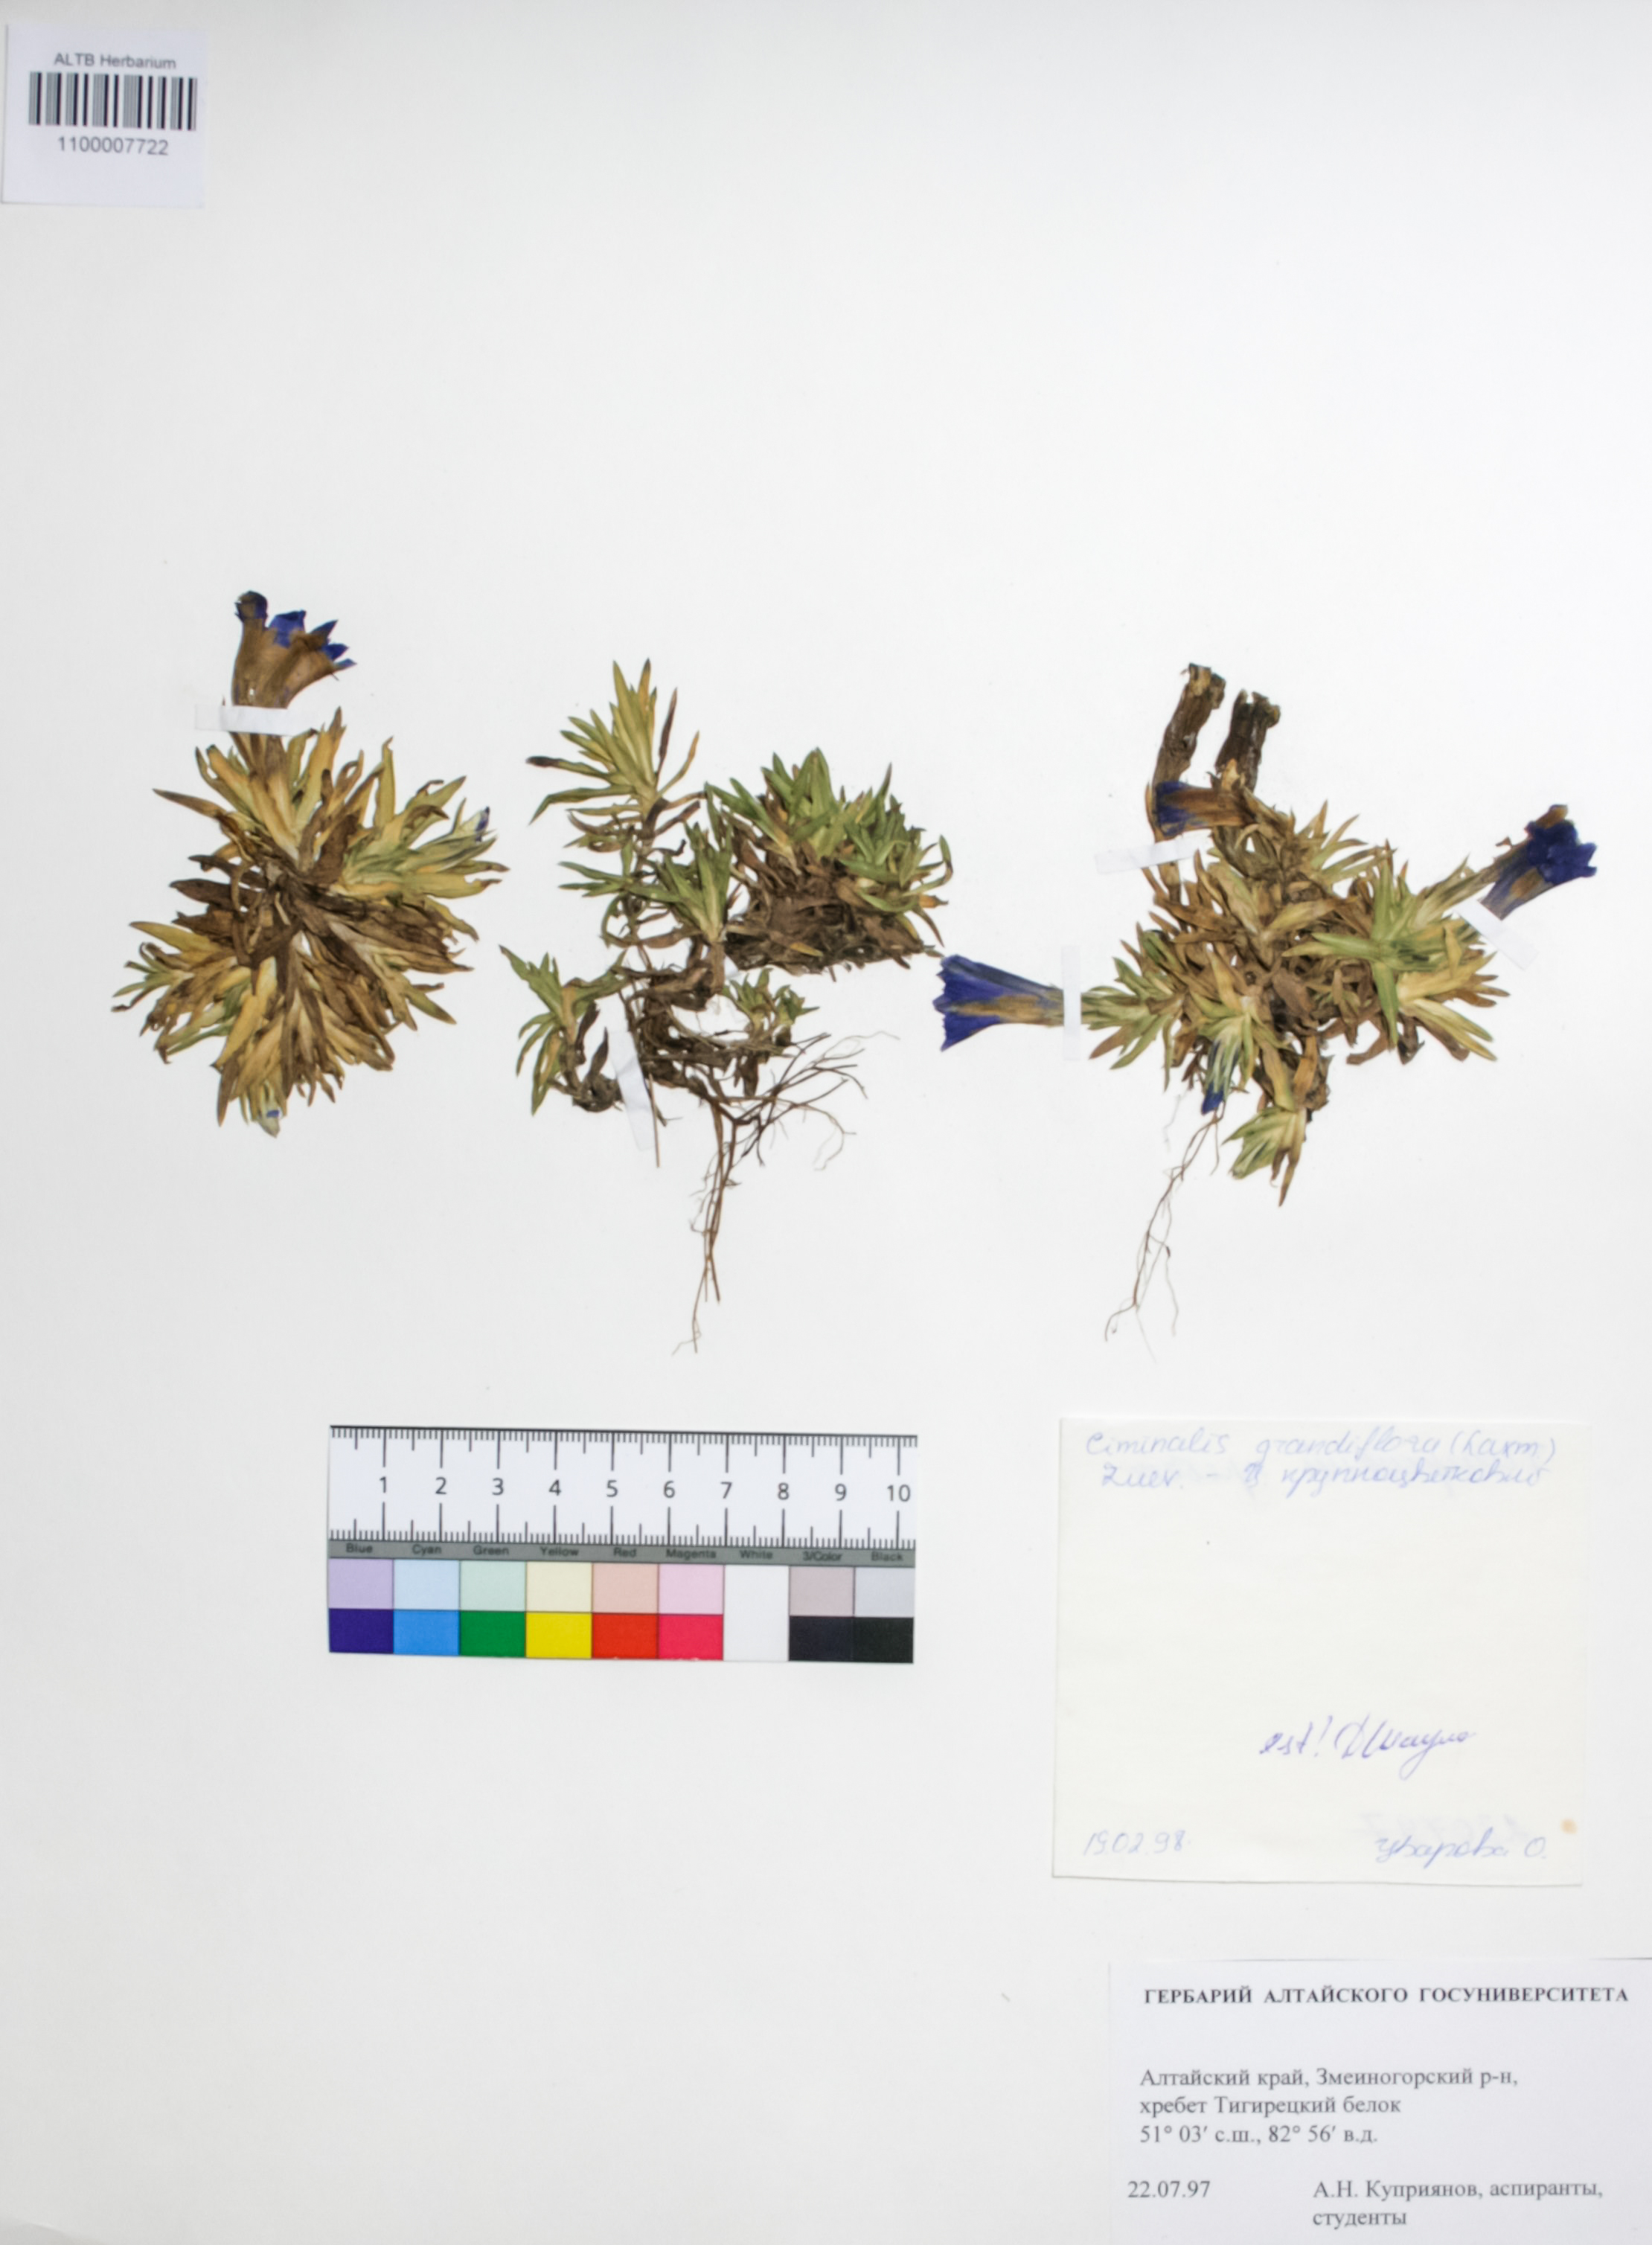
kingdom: Plantae
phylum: Tracheophyta
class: Magnoliopsida
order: Gentianales
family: Gentianaceae
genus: Gentiana
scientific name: Gentiana grandiflora
